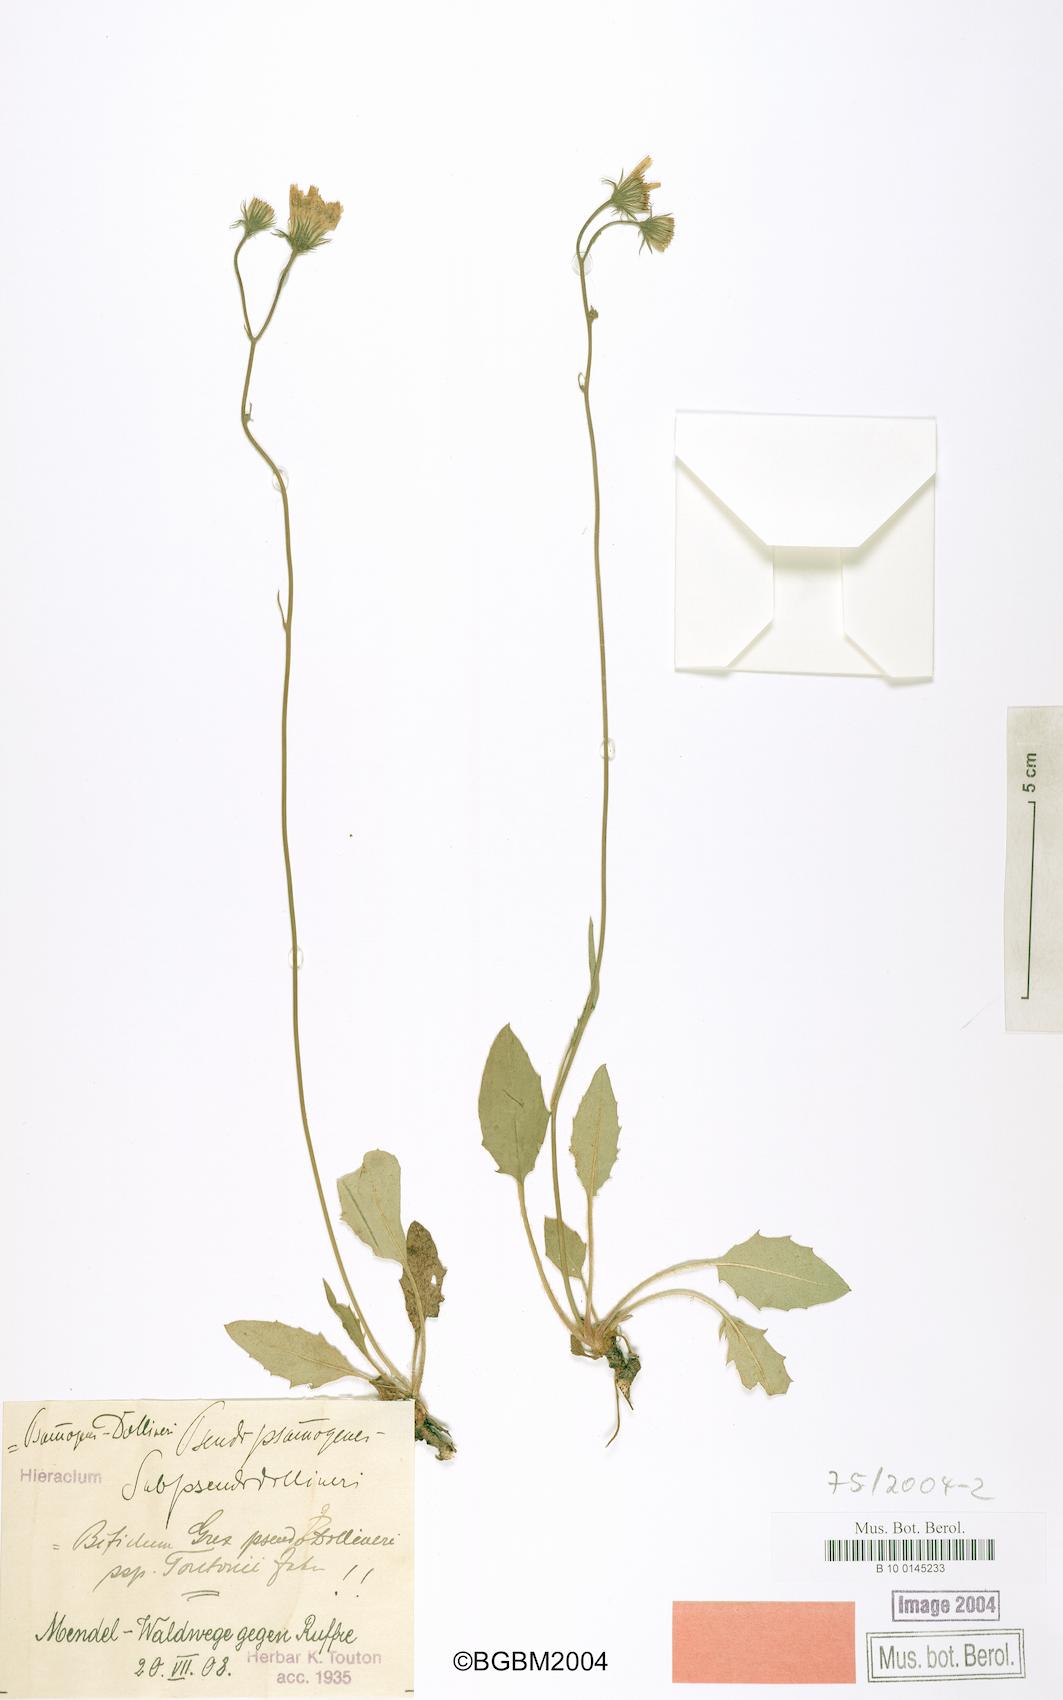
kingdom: Plantae
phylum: Tracheophyta
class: Magnoliopsida
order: Asterales
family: Asteraceae
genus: Hieracium
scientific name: Hieracium bifidum
